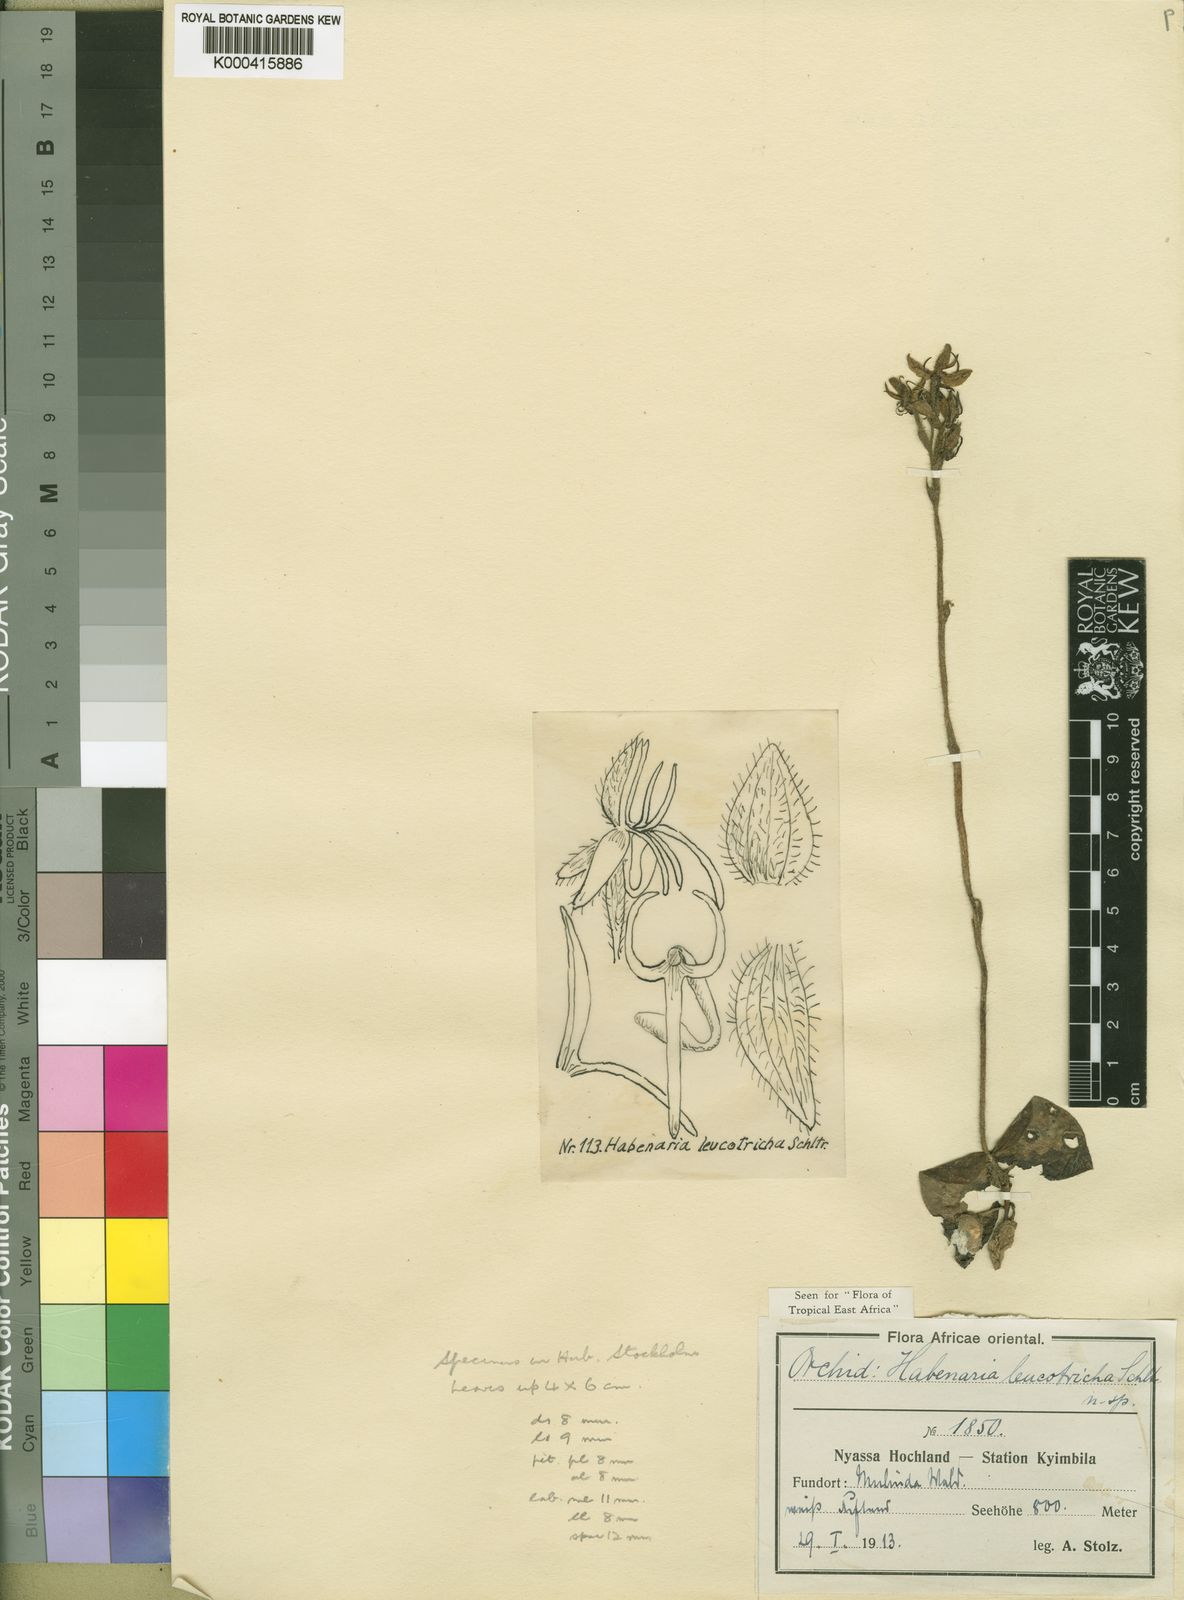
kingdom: Plantae
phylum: Tracheophyta
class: Liliopsida
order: Asparagales
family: Orchidaceae
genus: Habenaria
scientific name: Habenaria leucotricha
